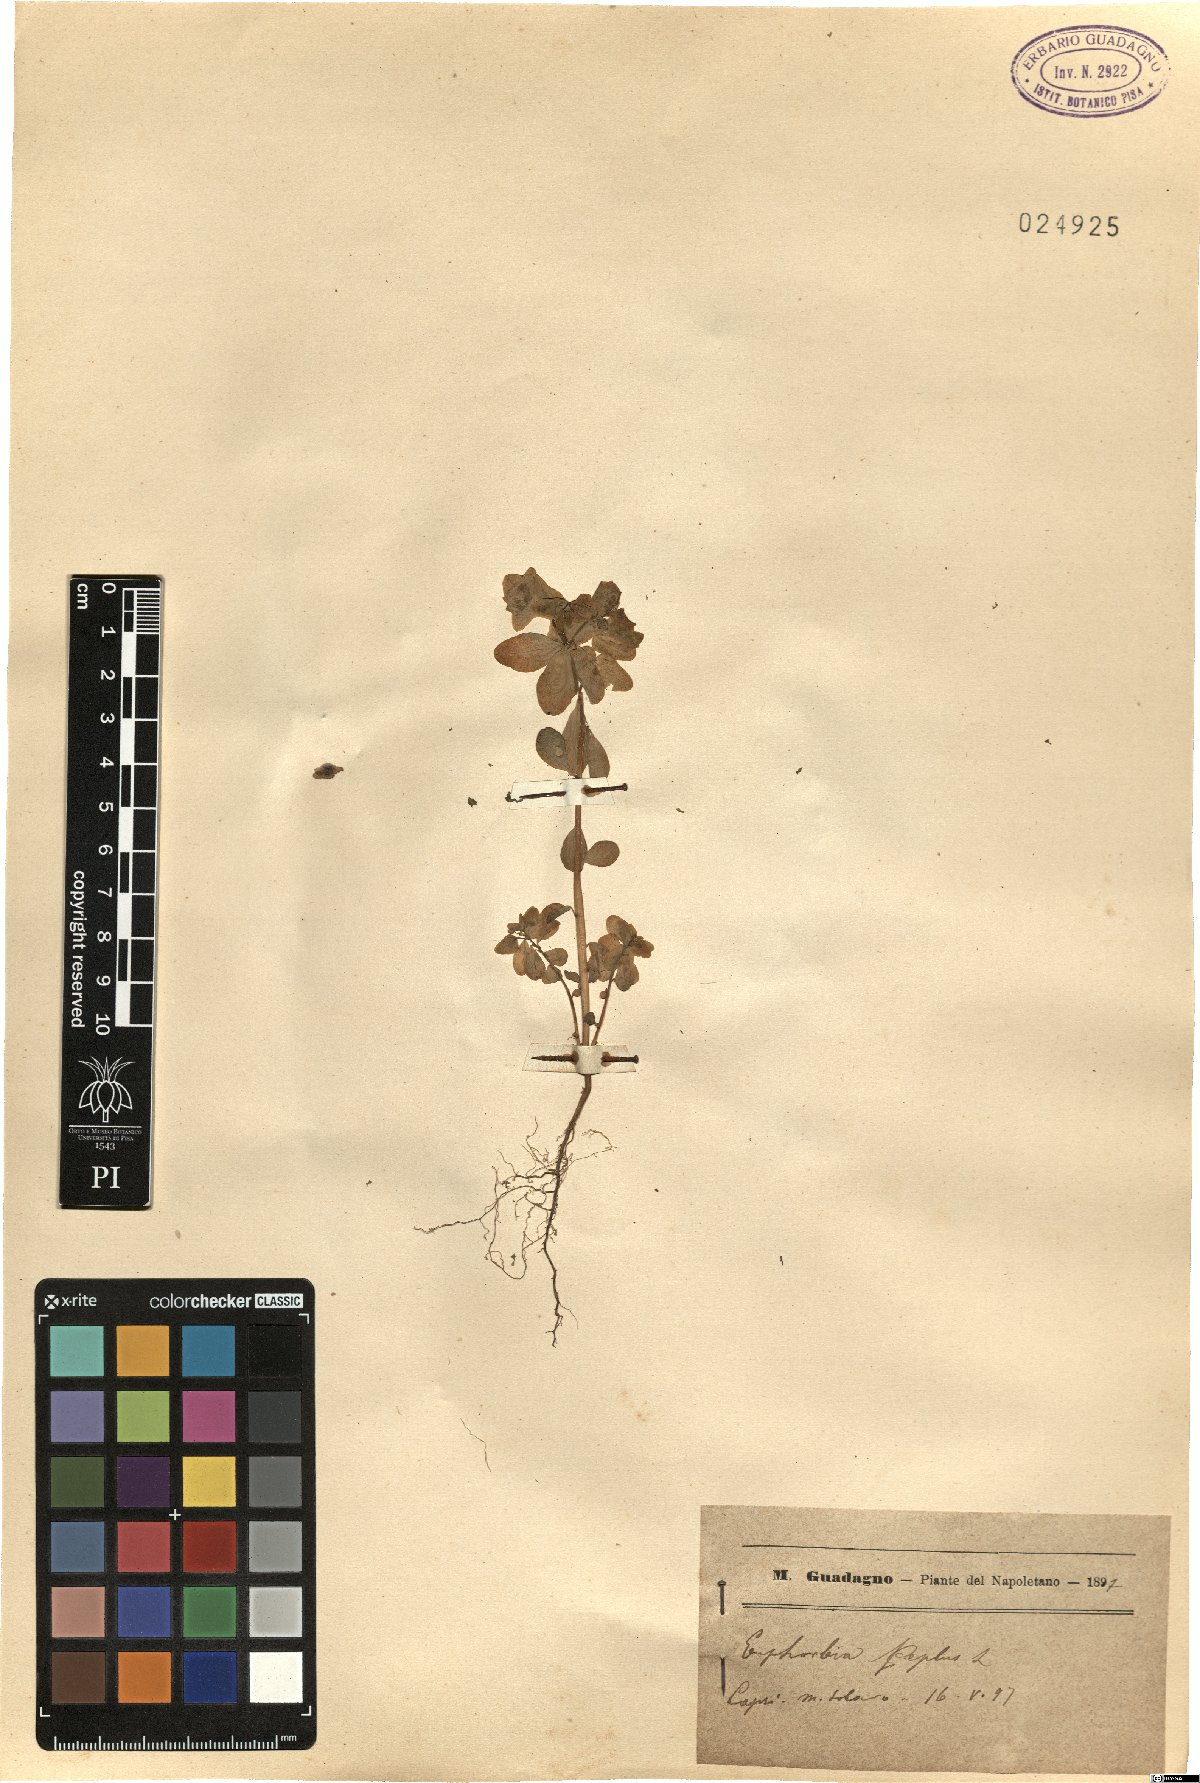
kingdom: Plantae
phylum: Tracheophyta
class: Magnoliopsida
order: Malpighiales
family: Euphorbiaceae
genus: Euphorbia
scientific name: Euphorbia peplus
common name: Petty spurge
